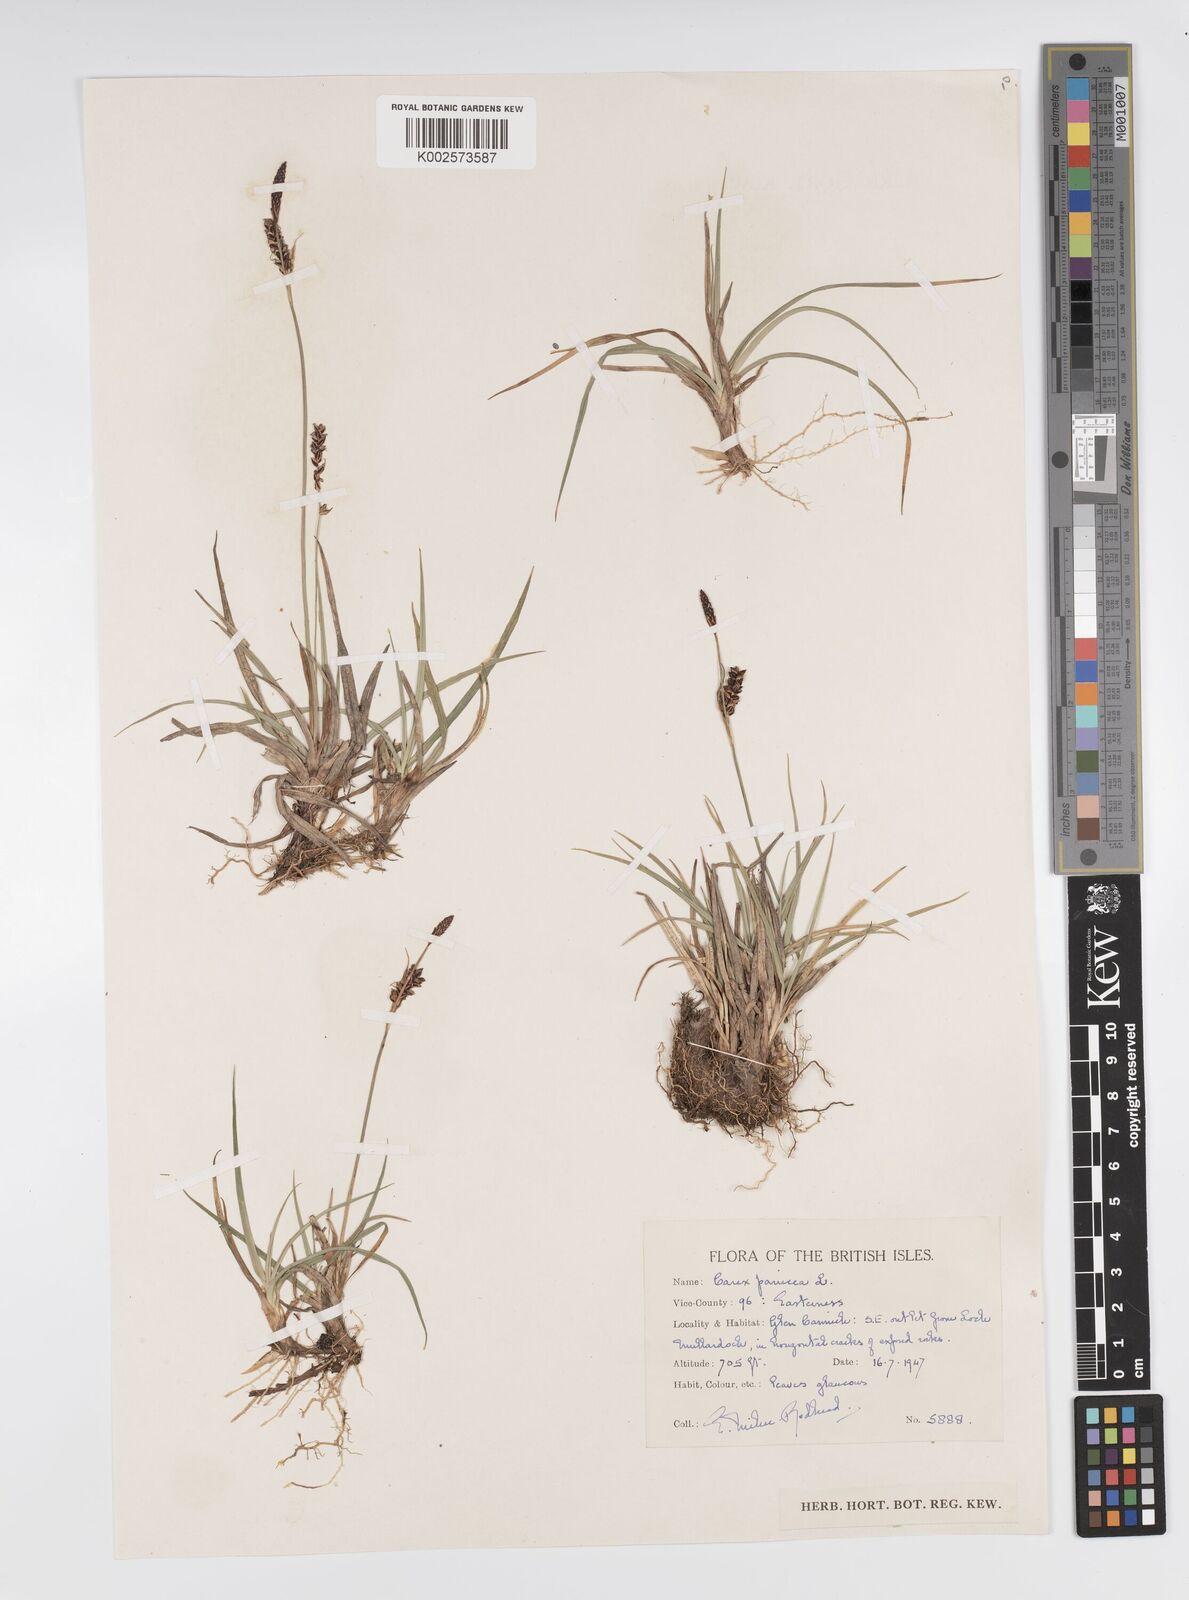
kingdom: Plantae
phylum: Tracheophyta
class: Liliopsida
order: Poales
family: Cyperaceae
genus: Carex
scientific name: Carex panicea
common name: Carnation sedge
